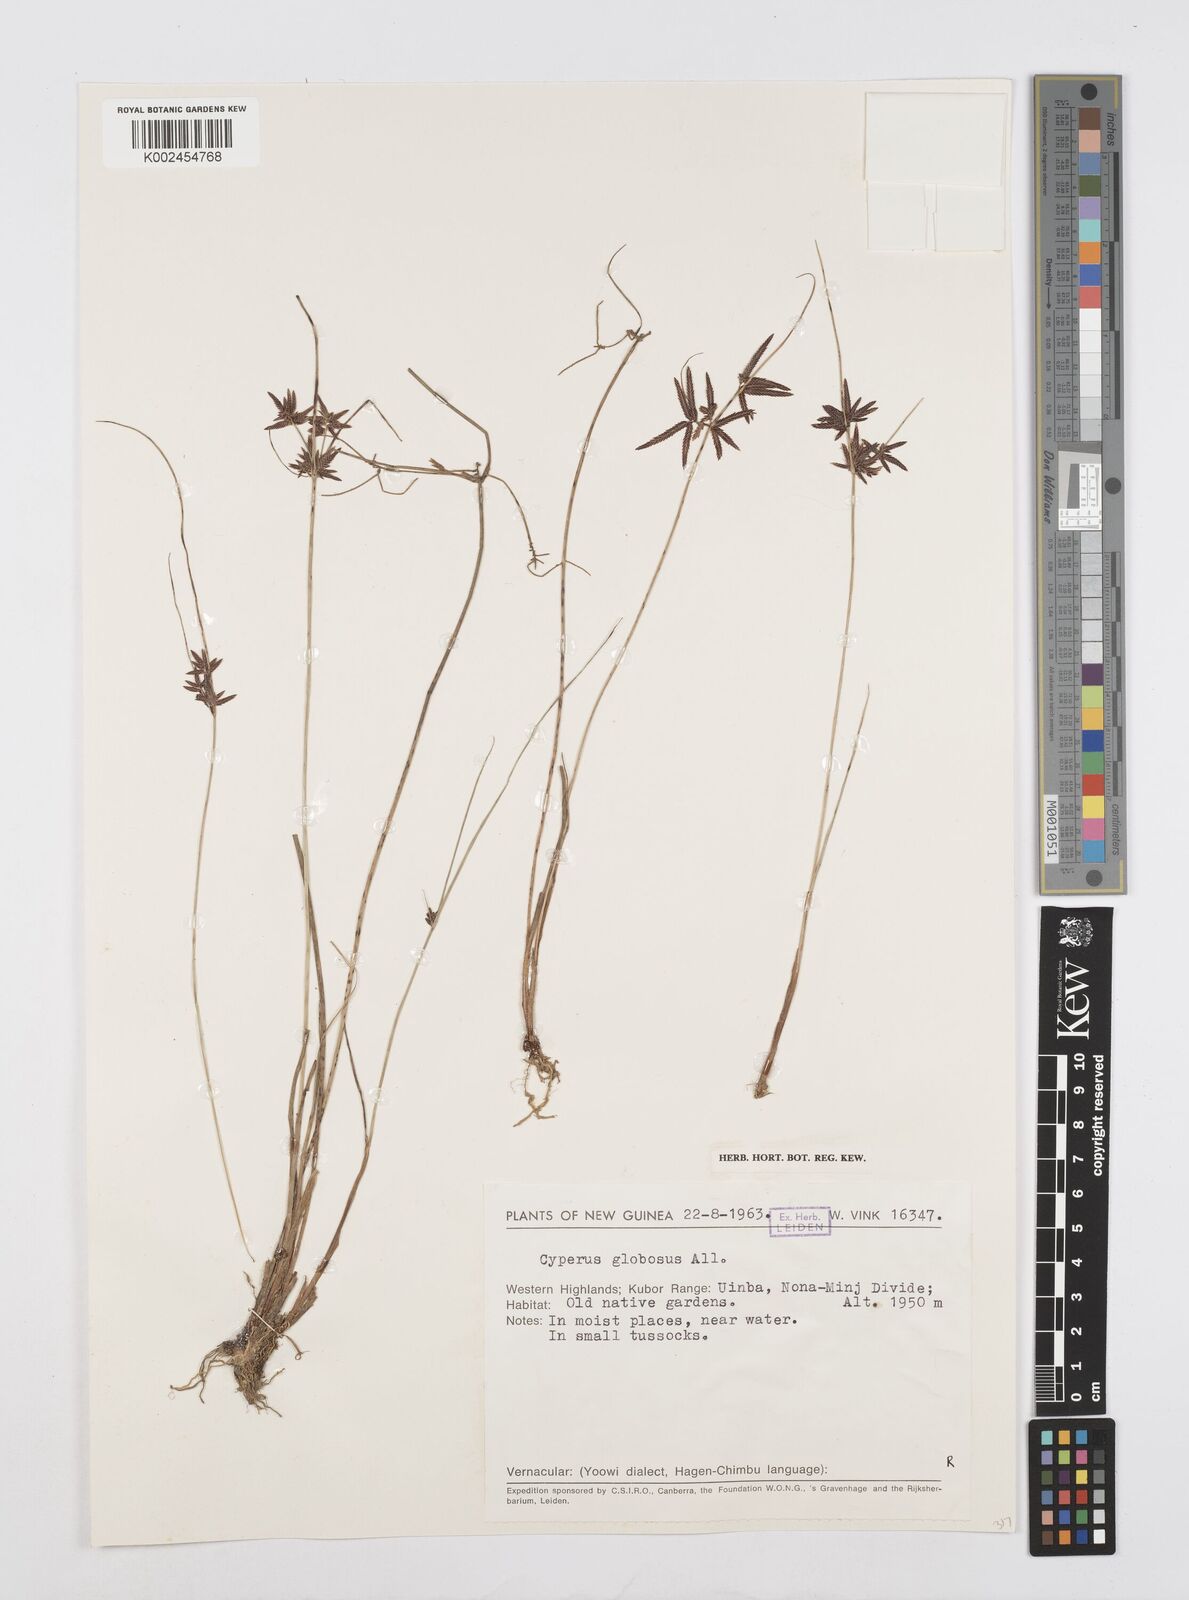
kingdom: Plantae
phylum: Tracheophyta
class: Liliopsida
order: Poales
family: Cyperaceae
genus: Cyperus
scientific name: Cyperus flavidus
